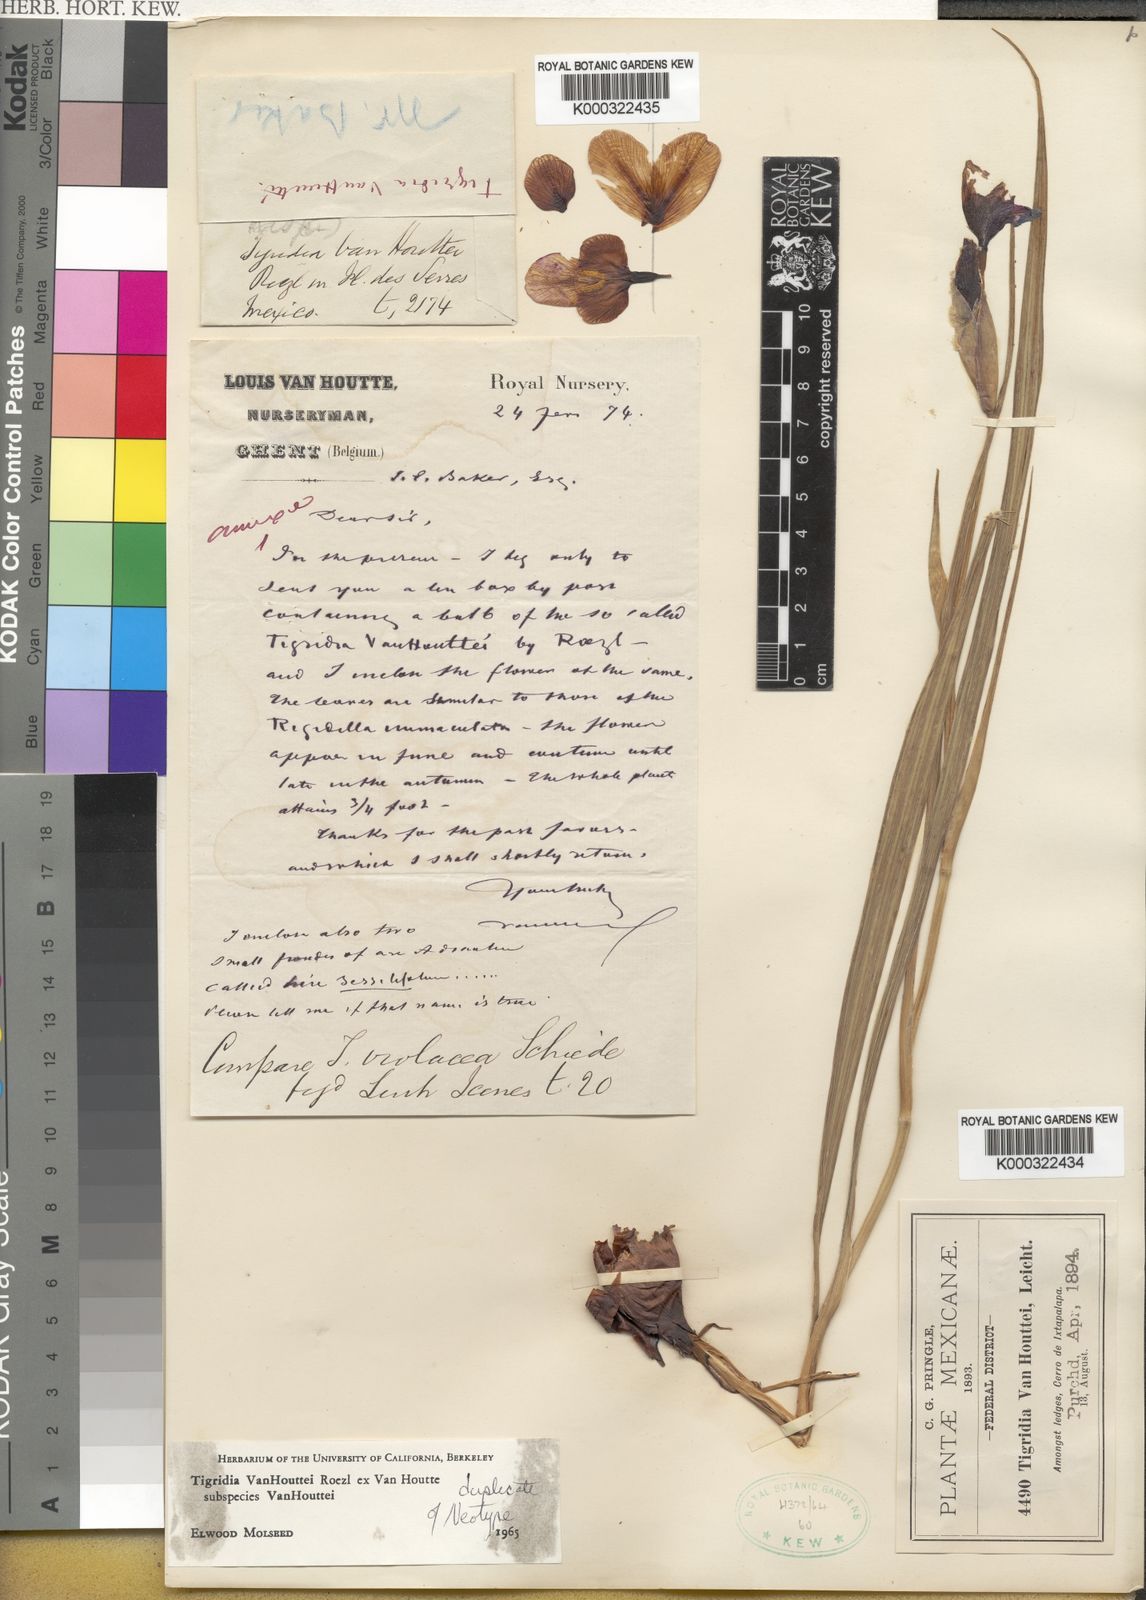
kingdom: Plantae
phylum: Tracheophyta
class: Liliopsida
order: Asparagales
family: Iridaceae
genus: Tigridia
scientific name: Tigridia vanhouttei
